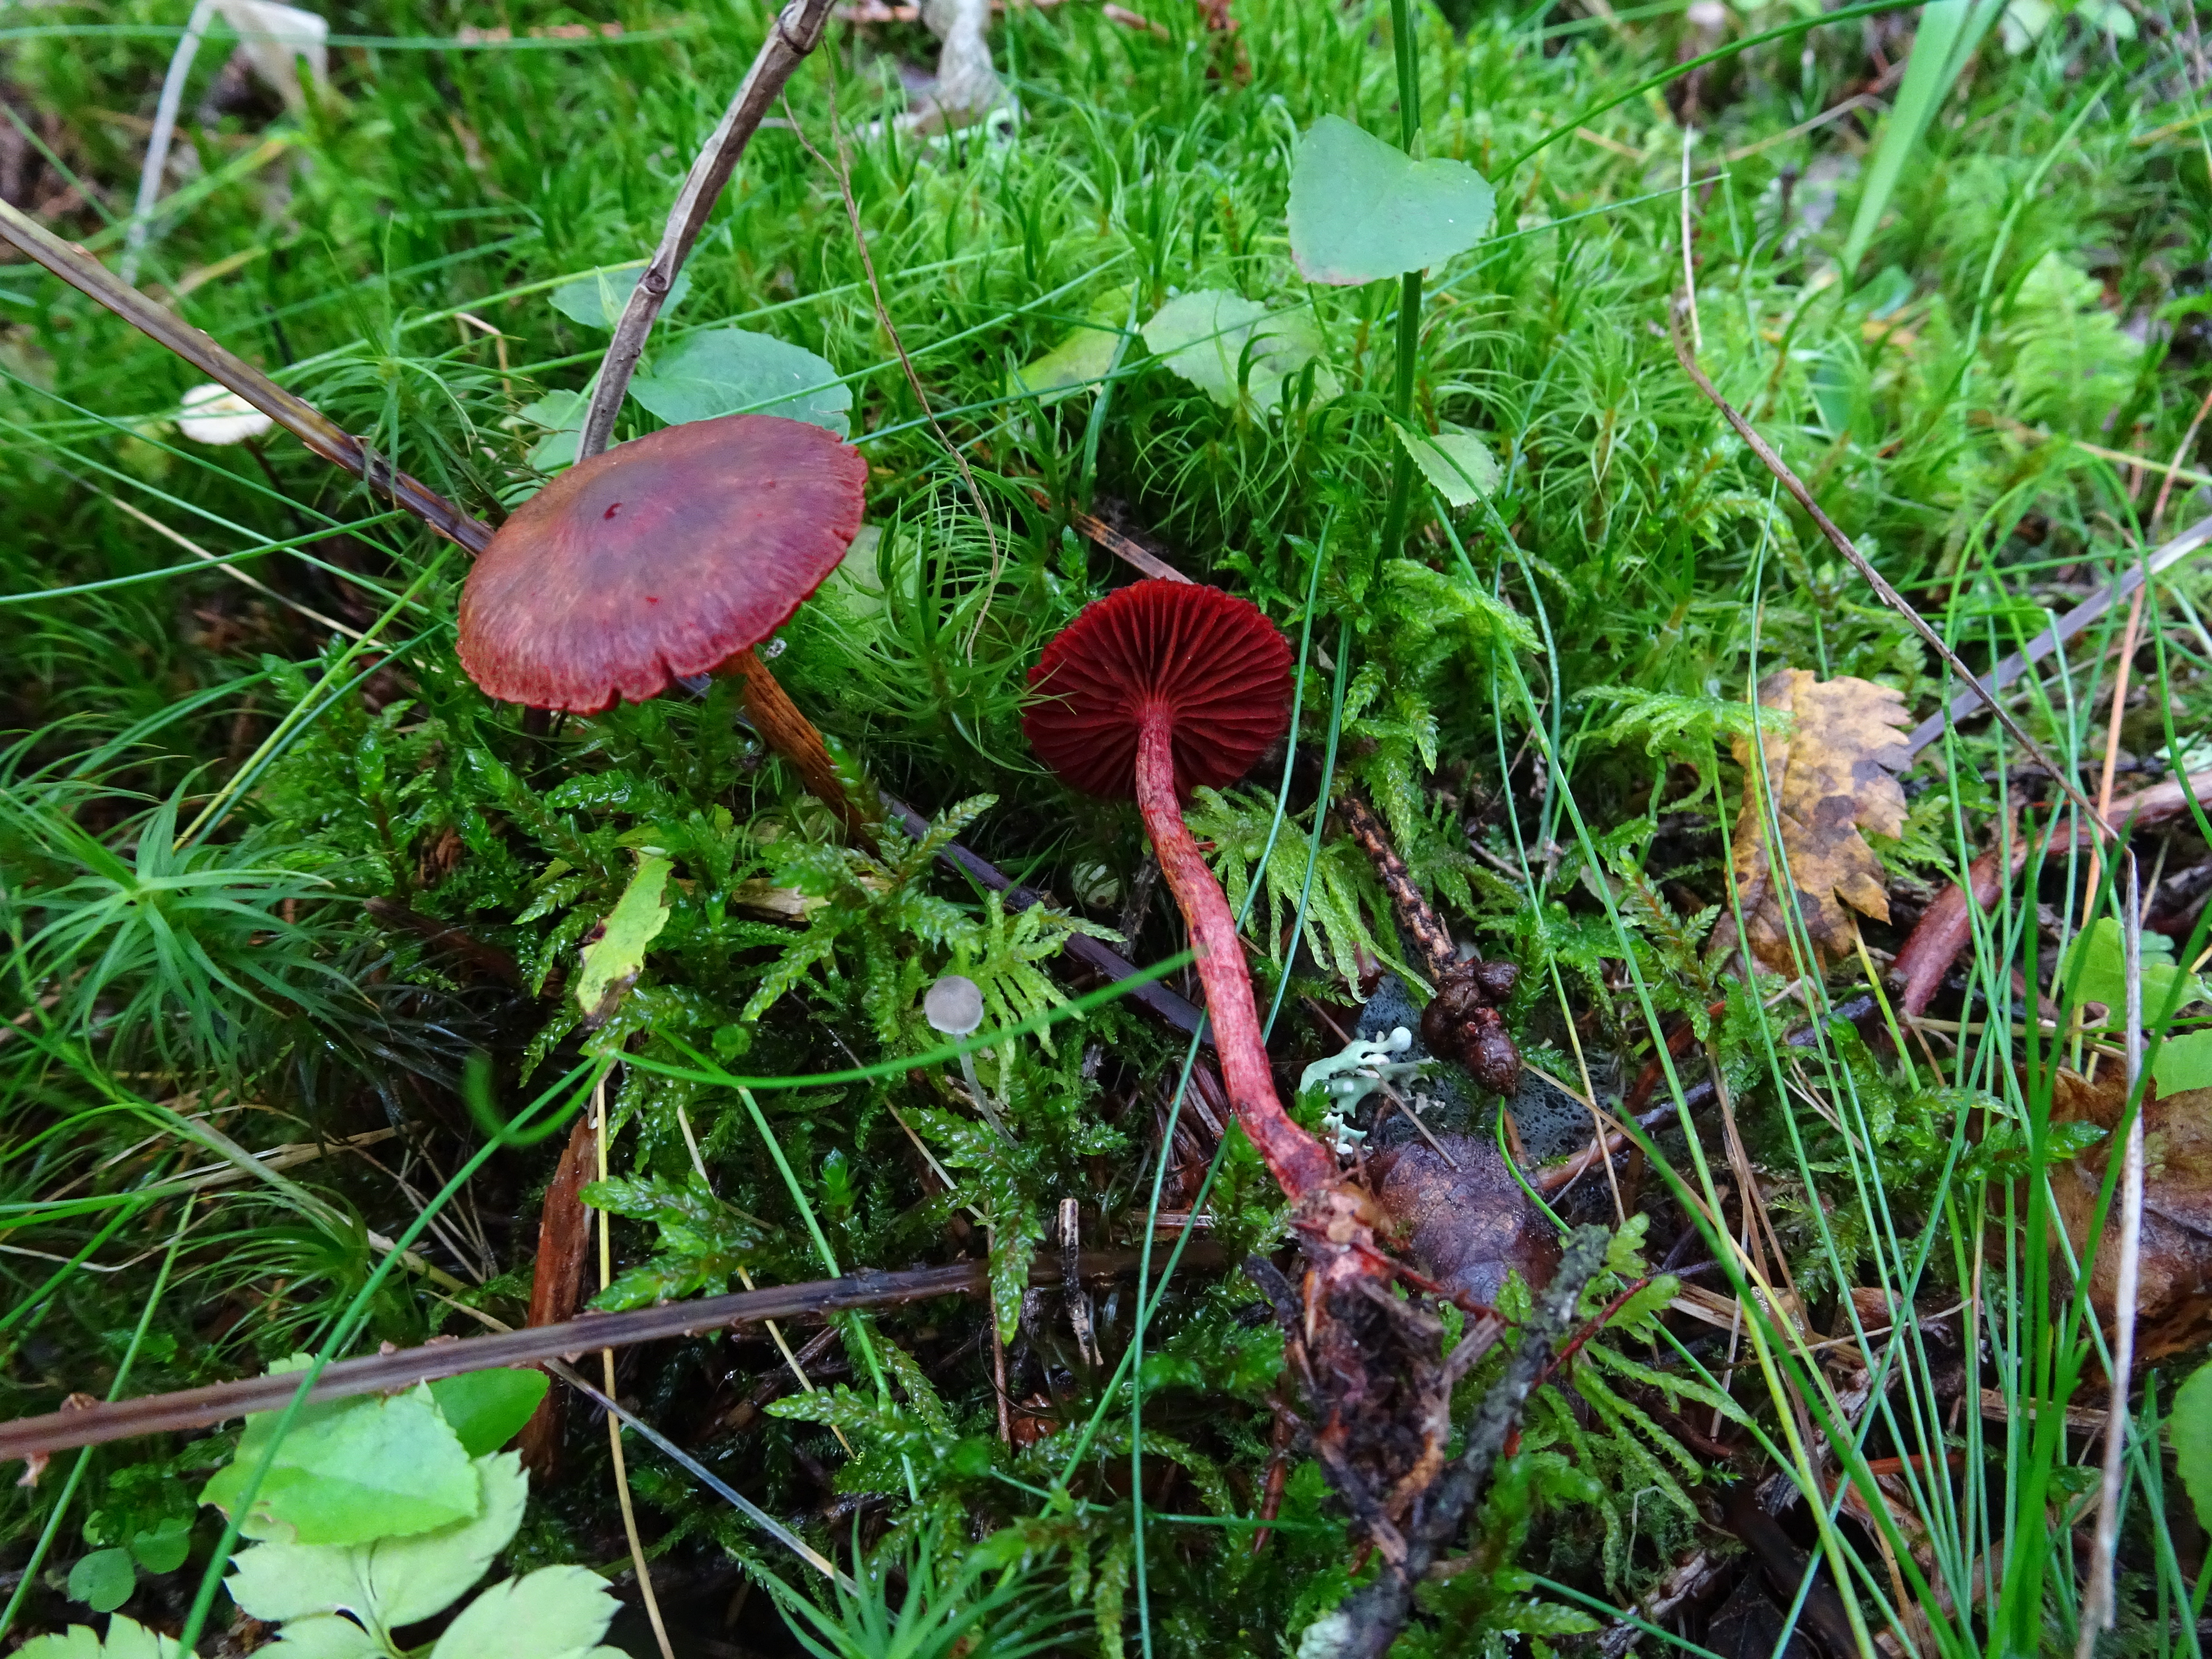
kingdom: Fungi
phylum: Basidiomycota
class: Agaricomycetes
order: Agaricales
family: Cortinariaceae
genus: Cortinarius
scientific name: Cortinarius vitiosus
